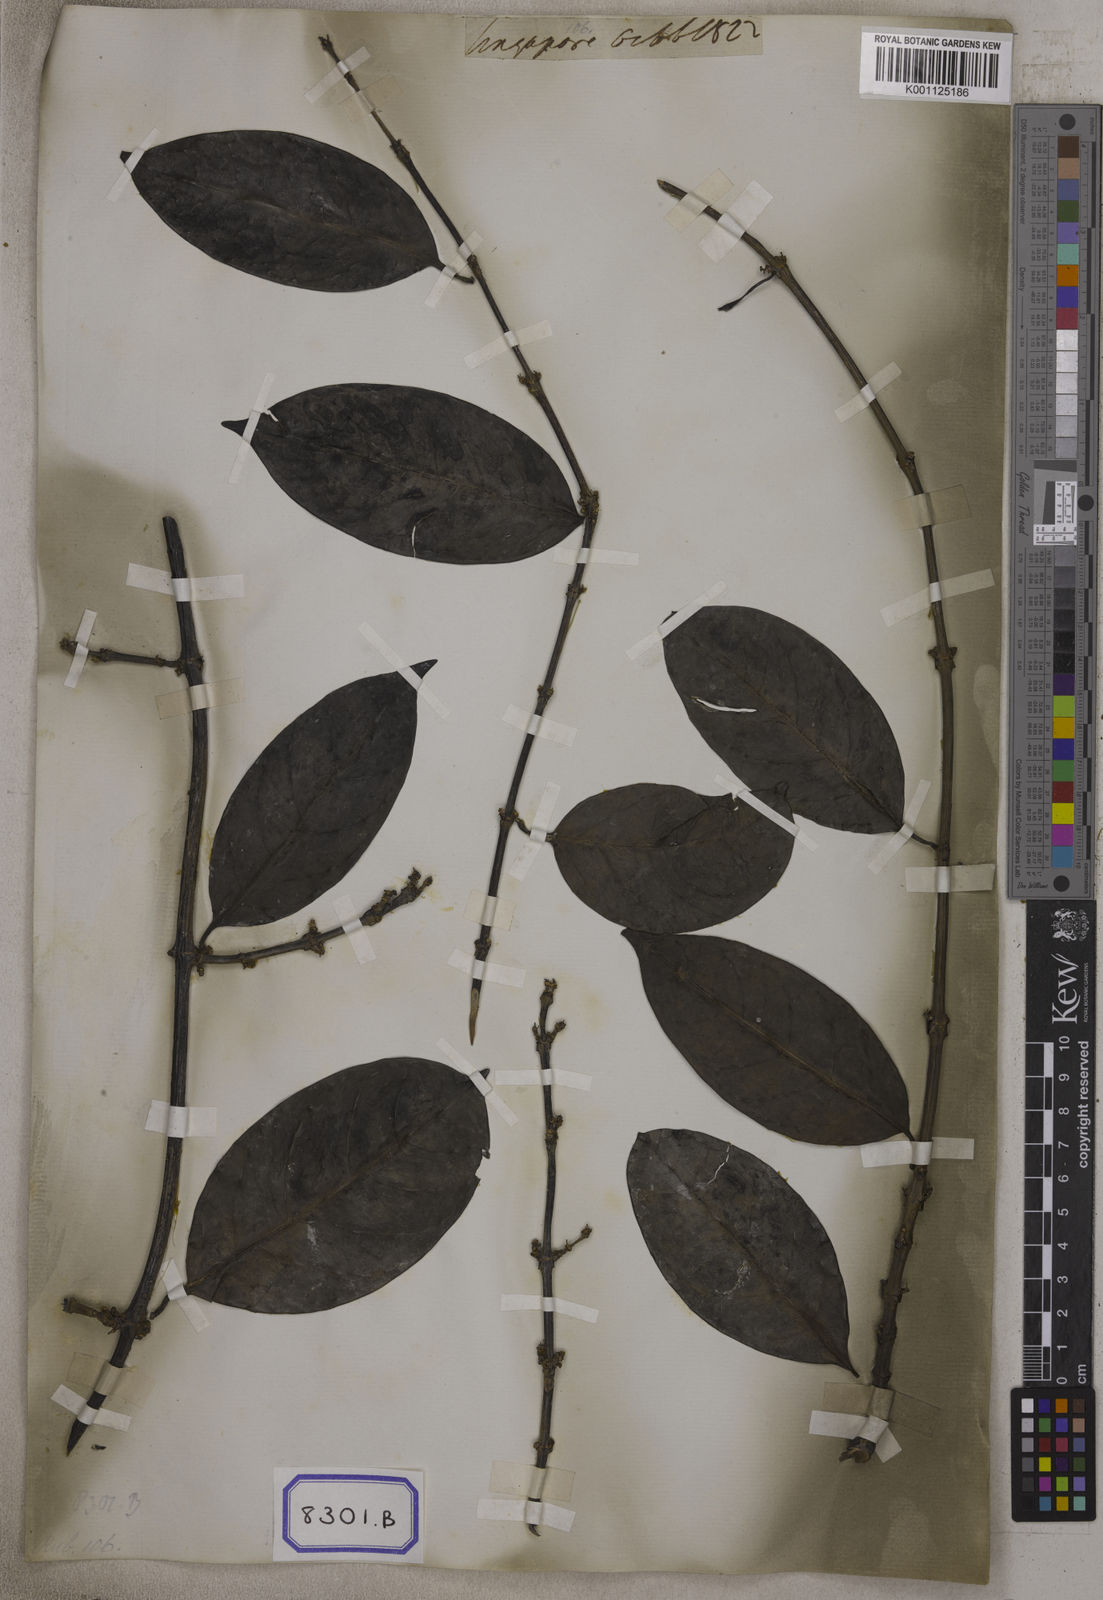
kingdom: Plantae
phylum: Tracheophyta
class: Magnoliopsida
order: Gentianales
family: Rubiaceae
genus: Hypobathrum
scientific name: Hypobathrum venulosum
